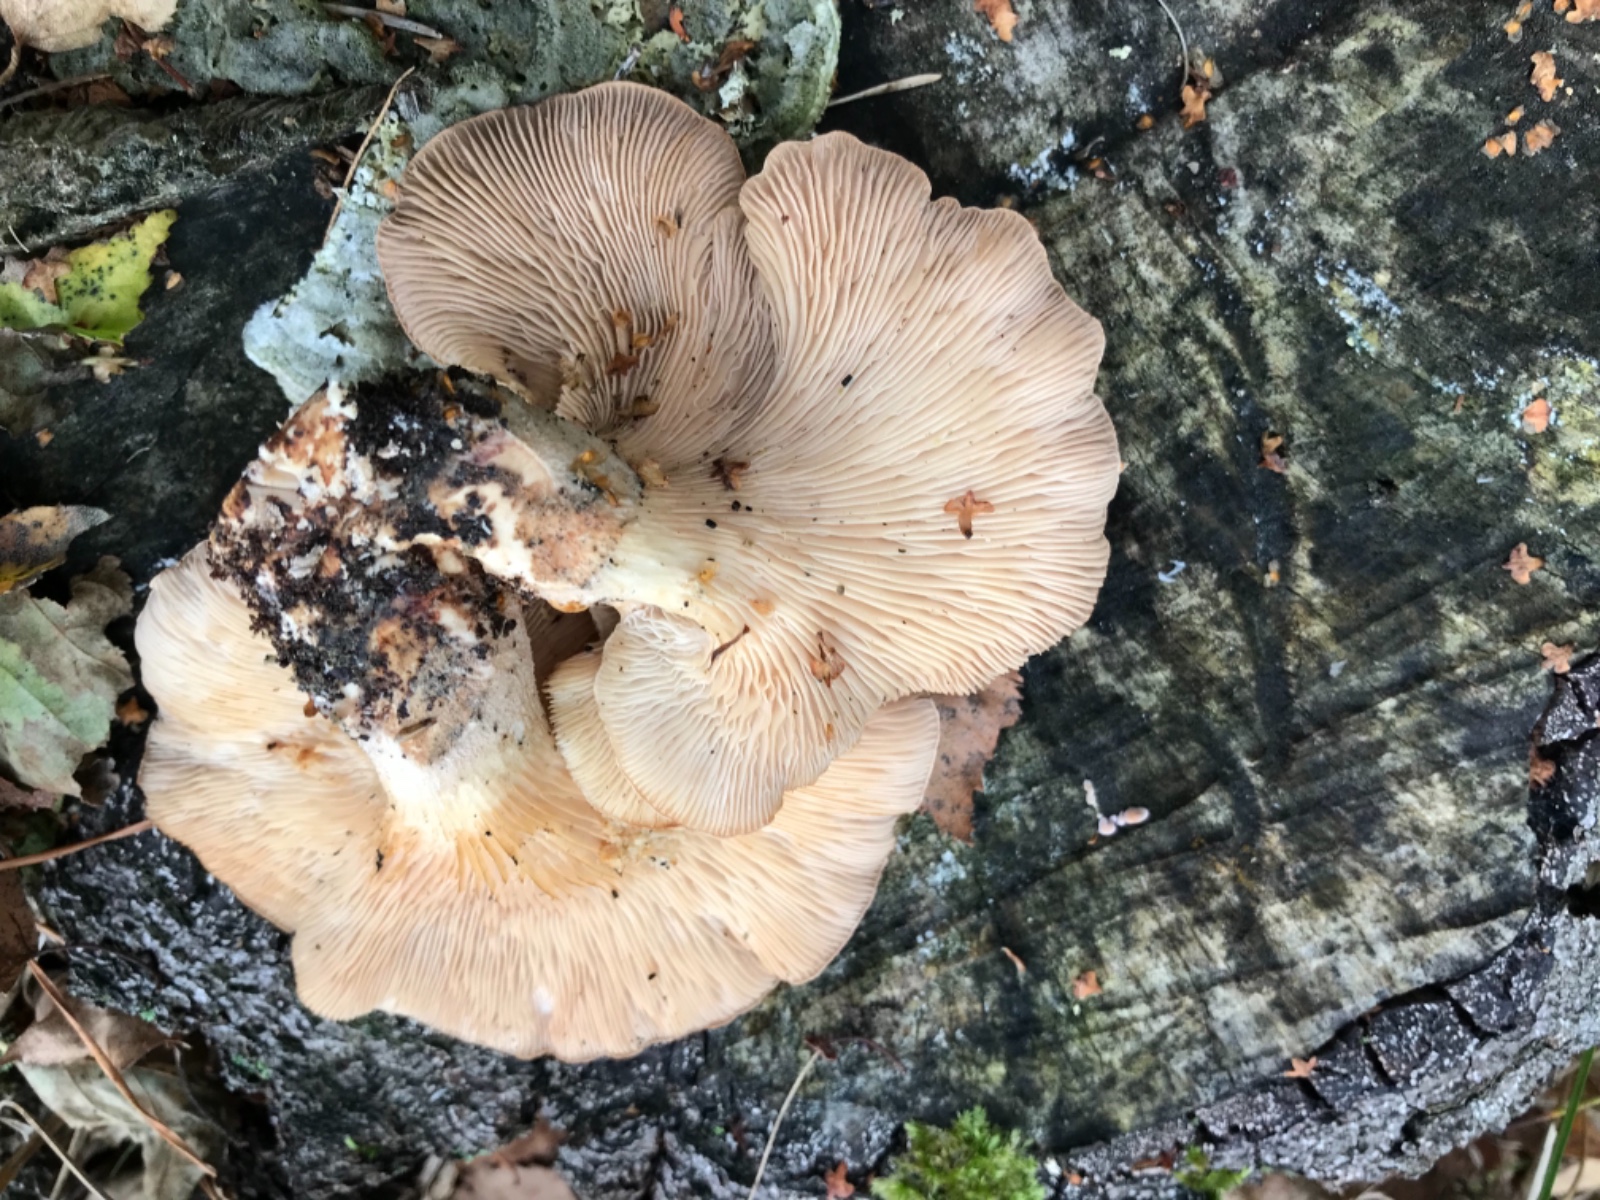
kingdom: Fungi
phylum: Basidiomycota
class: Agaricomycetes
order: Polyporales
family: Panaceae
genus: Panus
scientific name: Panus conchatus
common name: filtstokket læderhat
